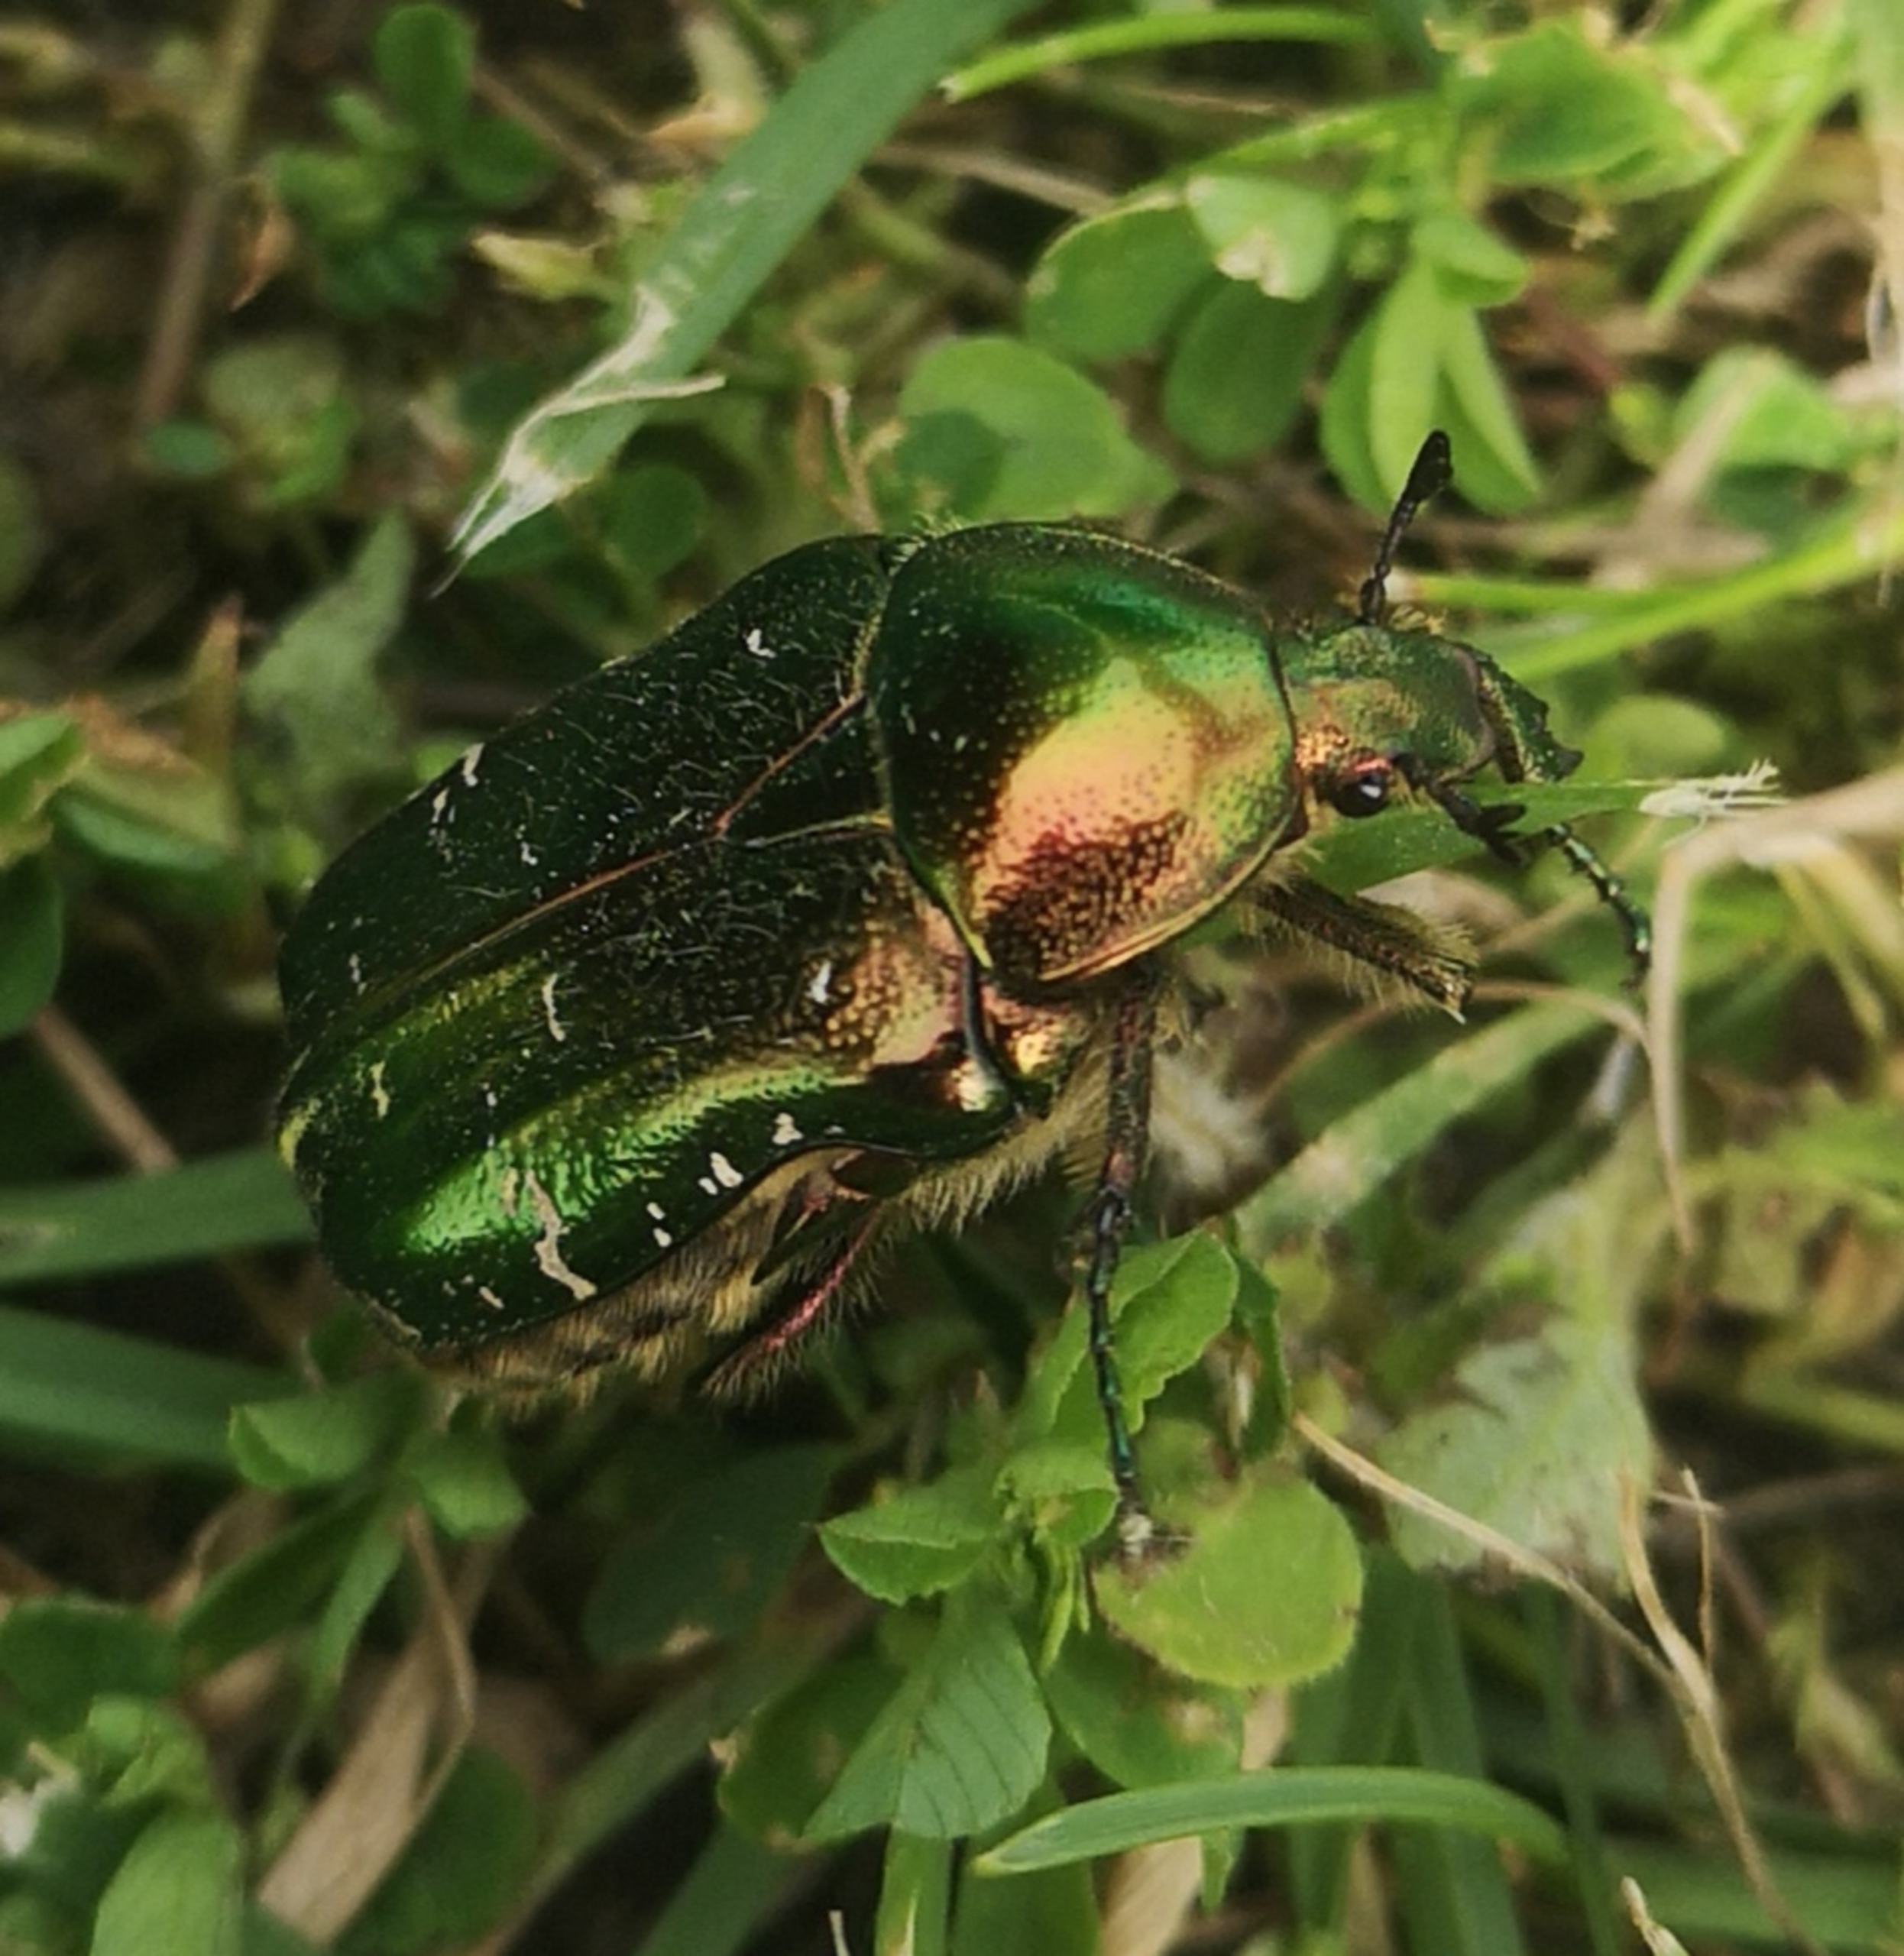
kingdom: Animalia
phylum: Arthropoda
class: Insecta
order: Coleoptera
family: Scarabaeidae
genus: Cetonia
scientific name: Cetonia aurata
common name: Grøn guldbasse
